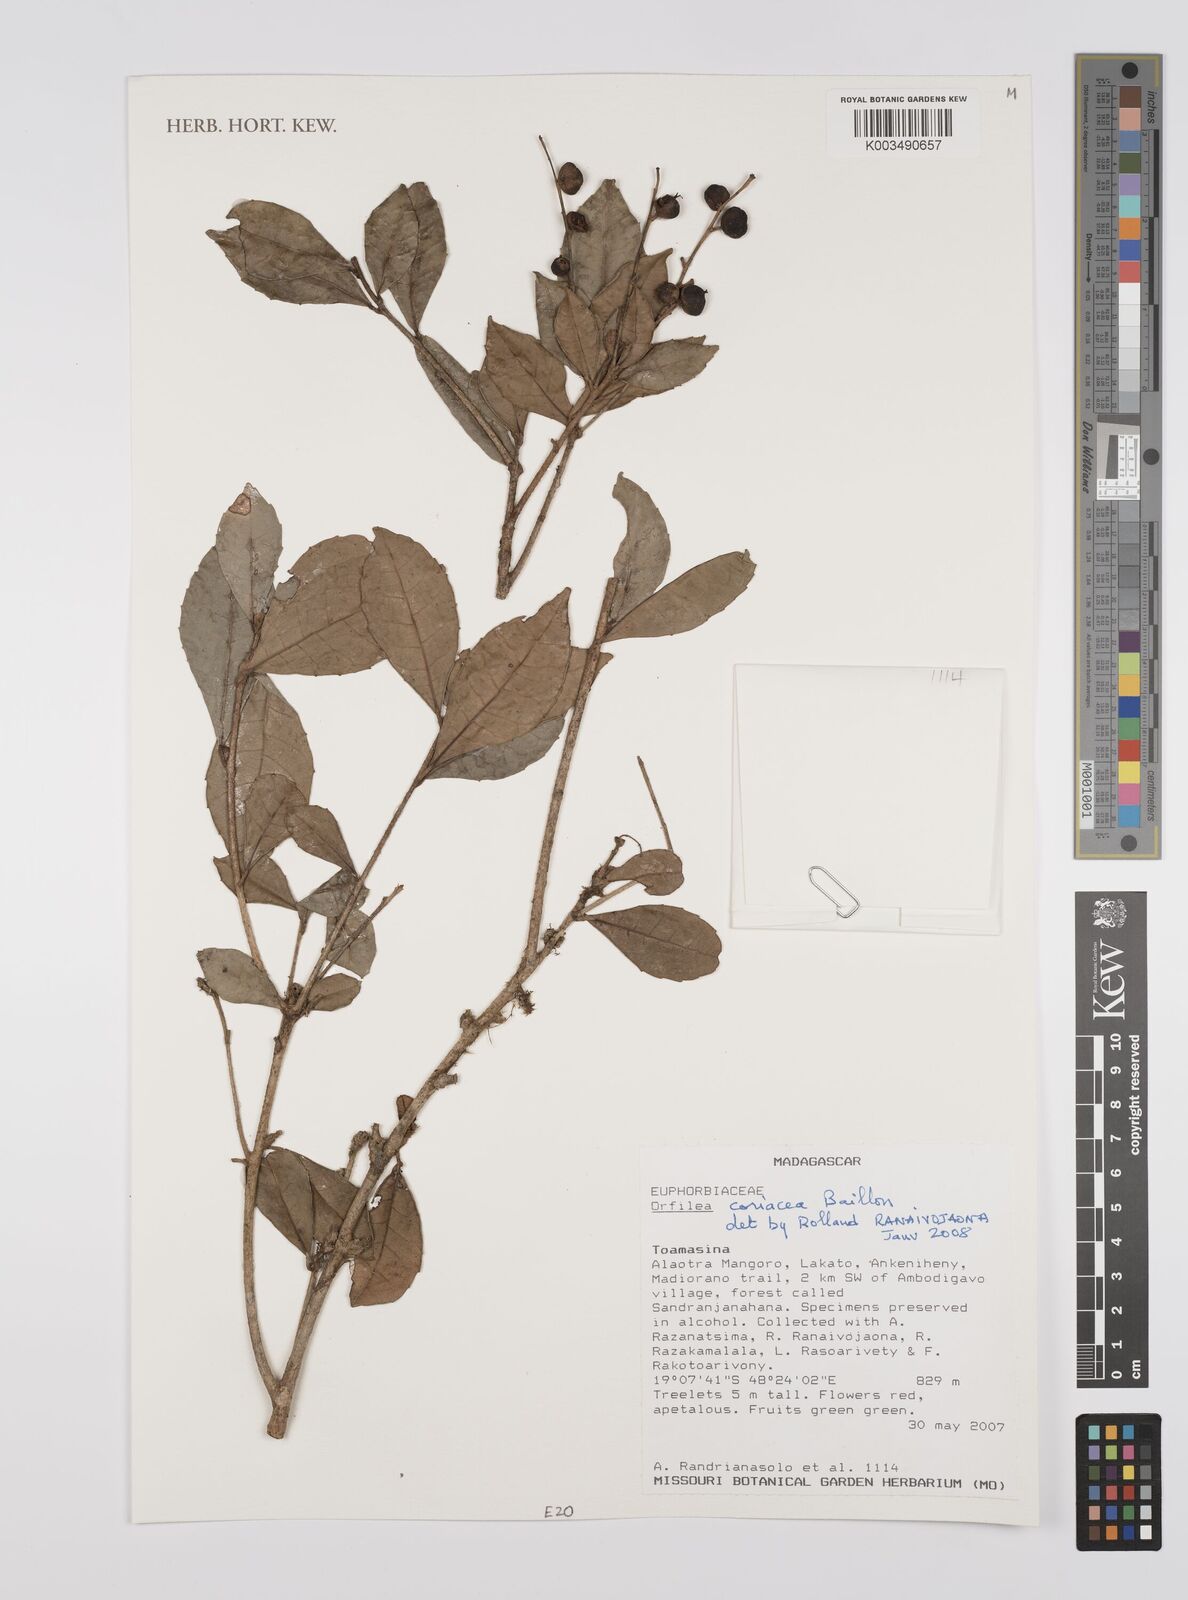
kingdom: Plantae
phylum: Tracheophyta
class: Magnoliopsida
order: Malpighiales
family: Euphorbiaceae
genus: Orfilea
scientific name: Orfilea coriacea
